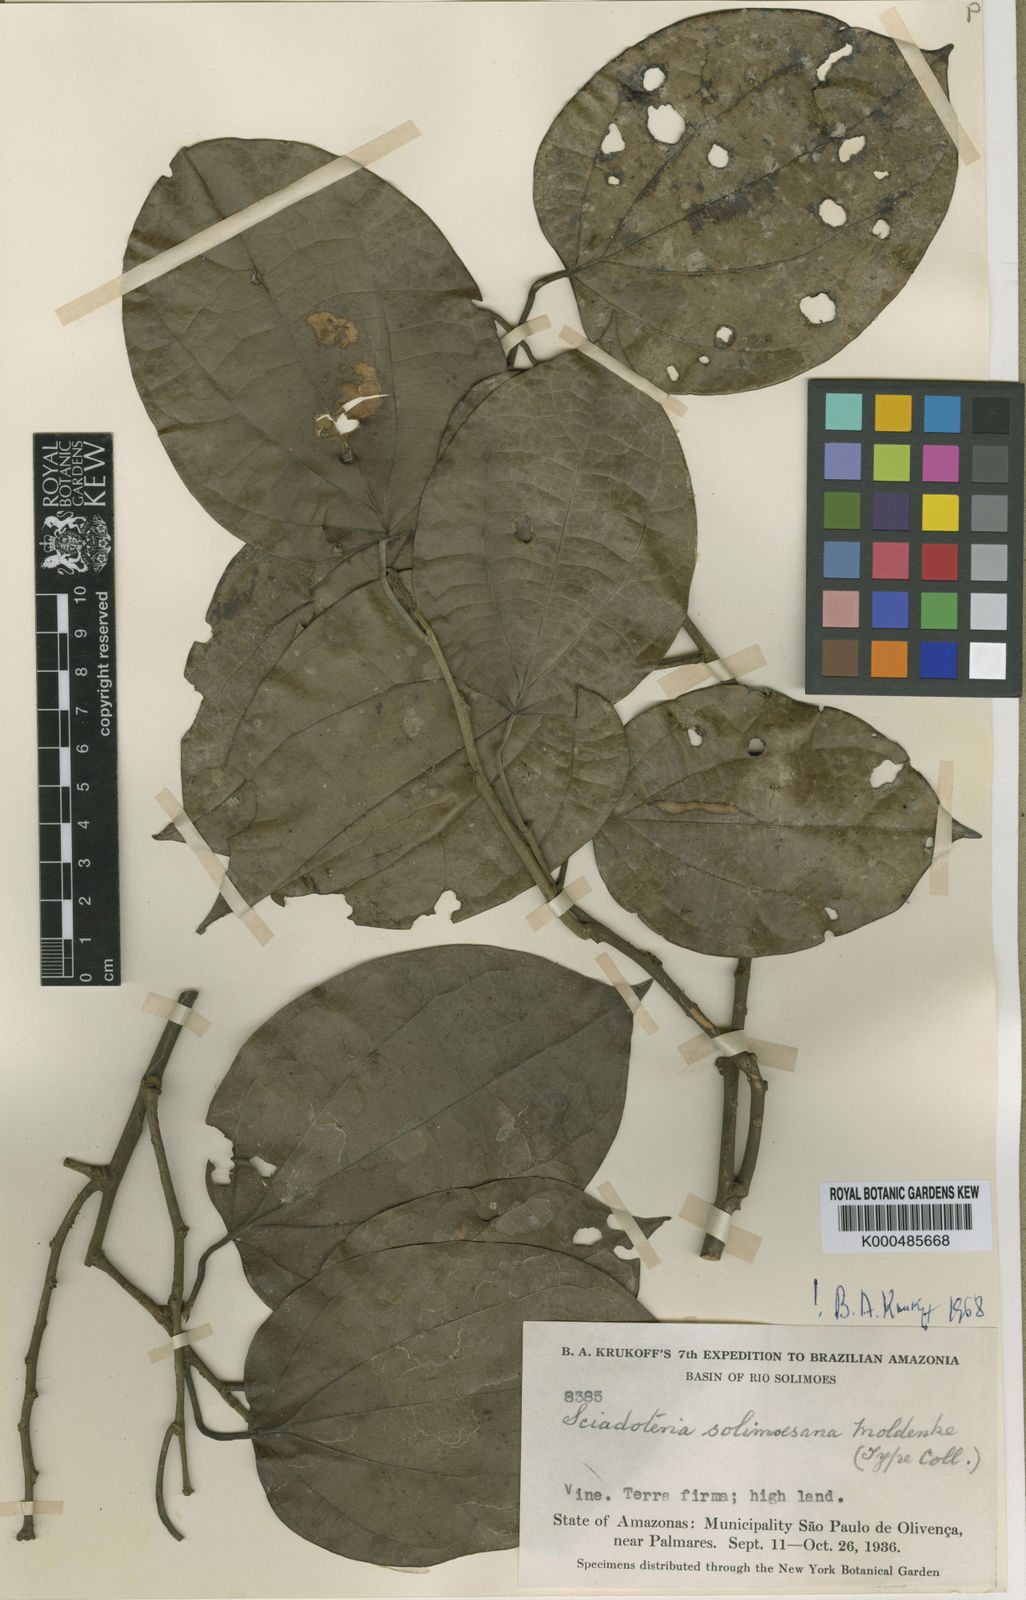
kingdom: Plantae
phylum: Tracheophyta
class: Magnoliopsida
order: Ranunculales
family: Menispermaceae
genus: Sciadotenia
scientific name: Sciadotenia solimoesana
